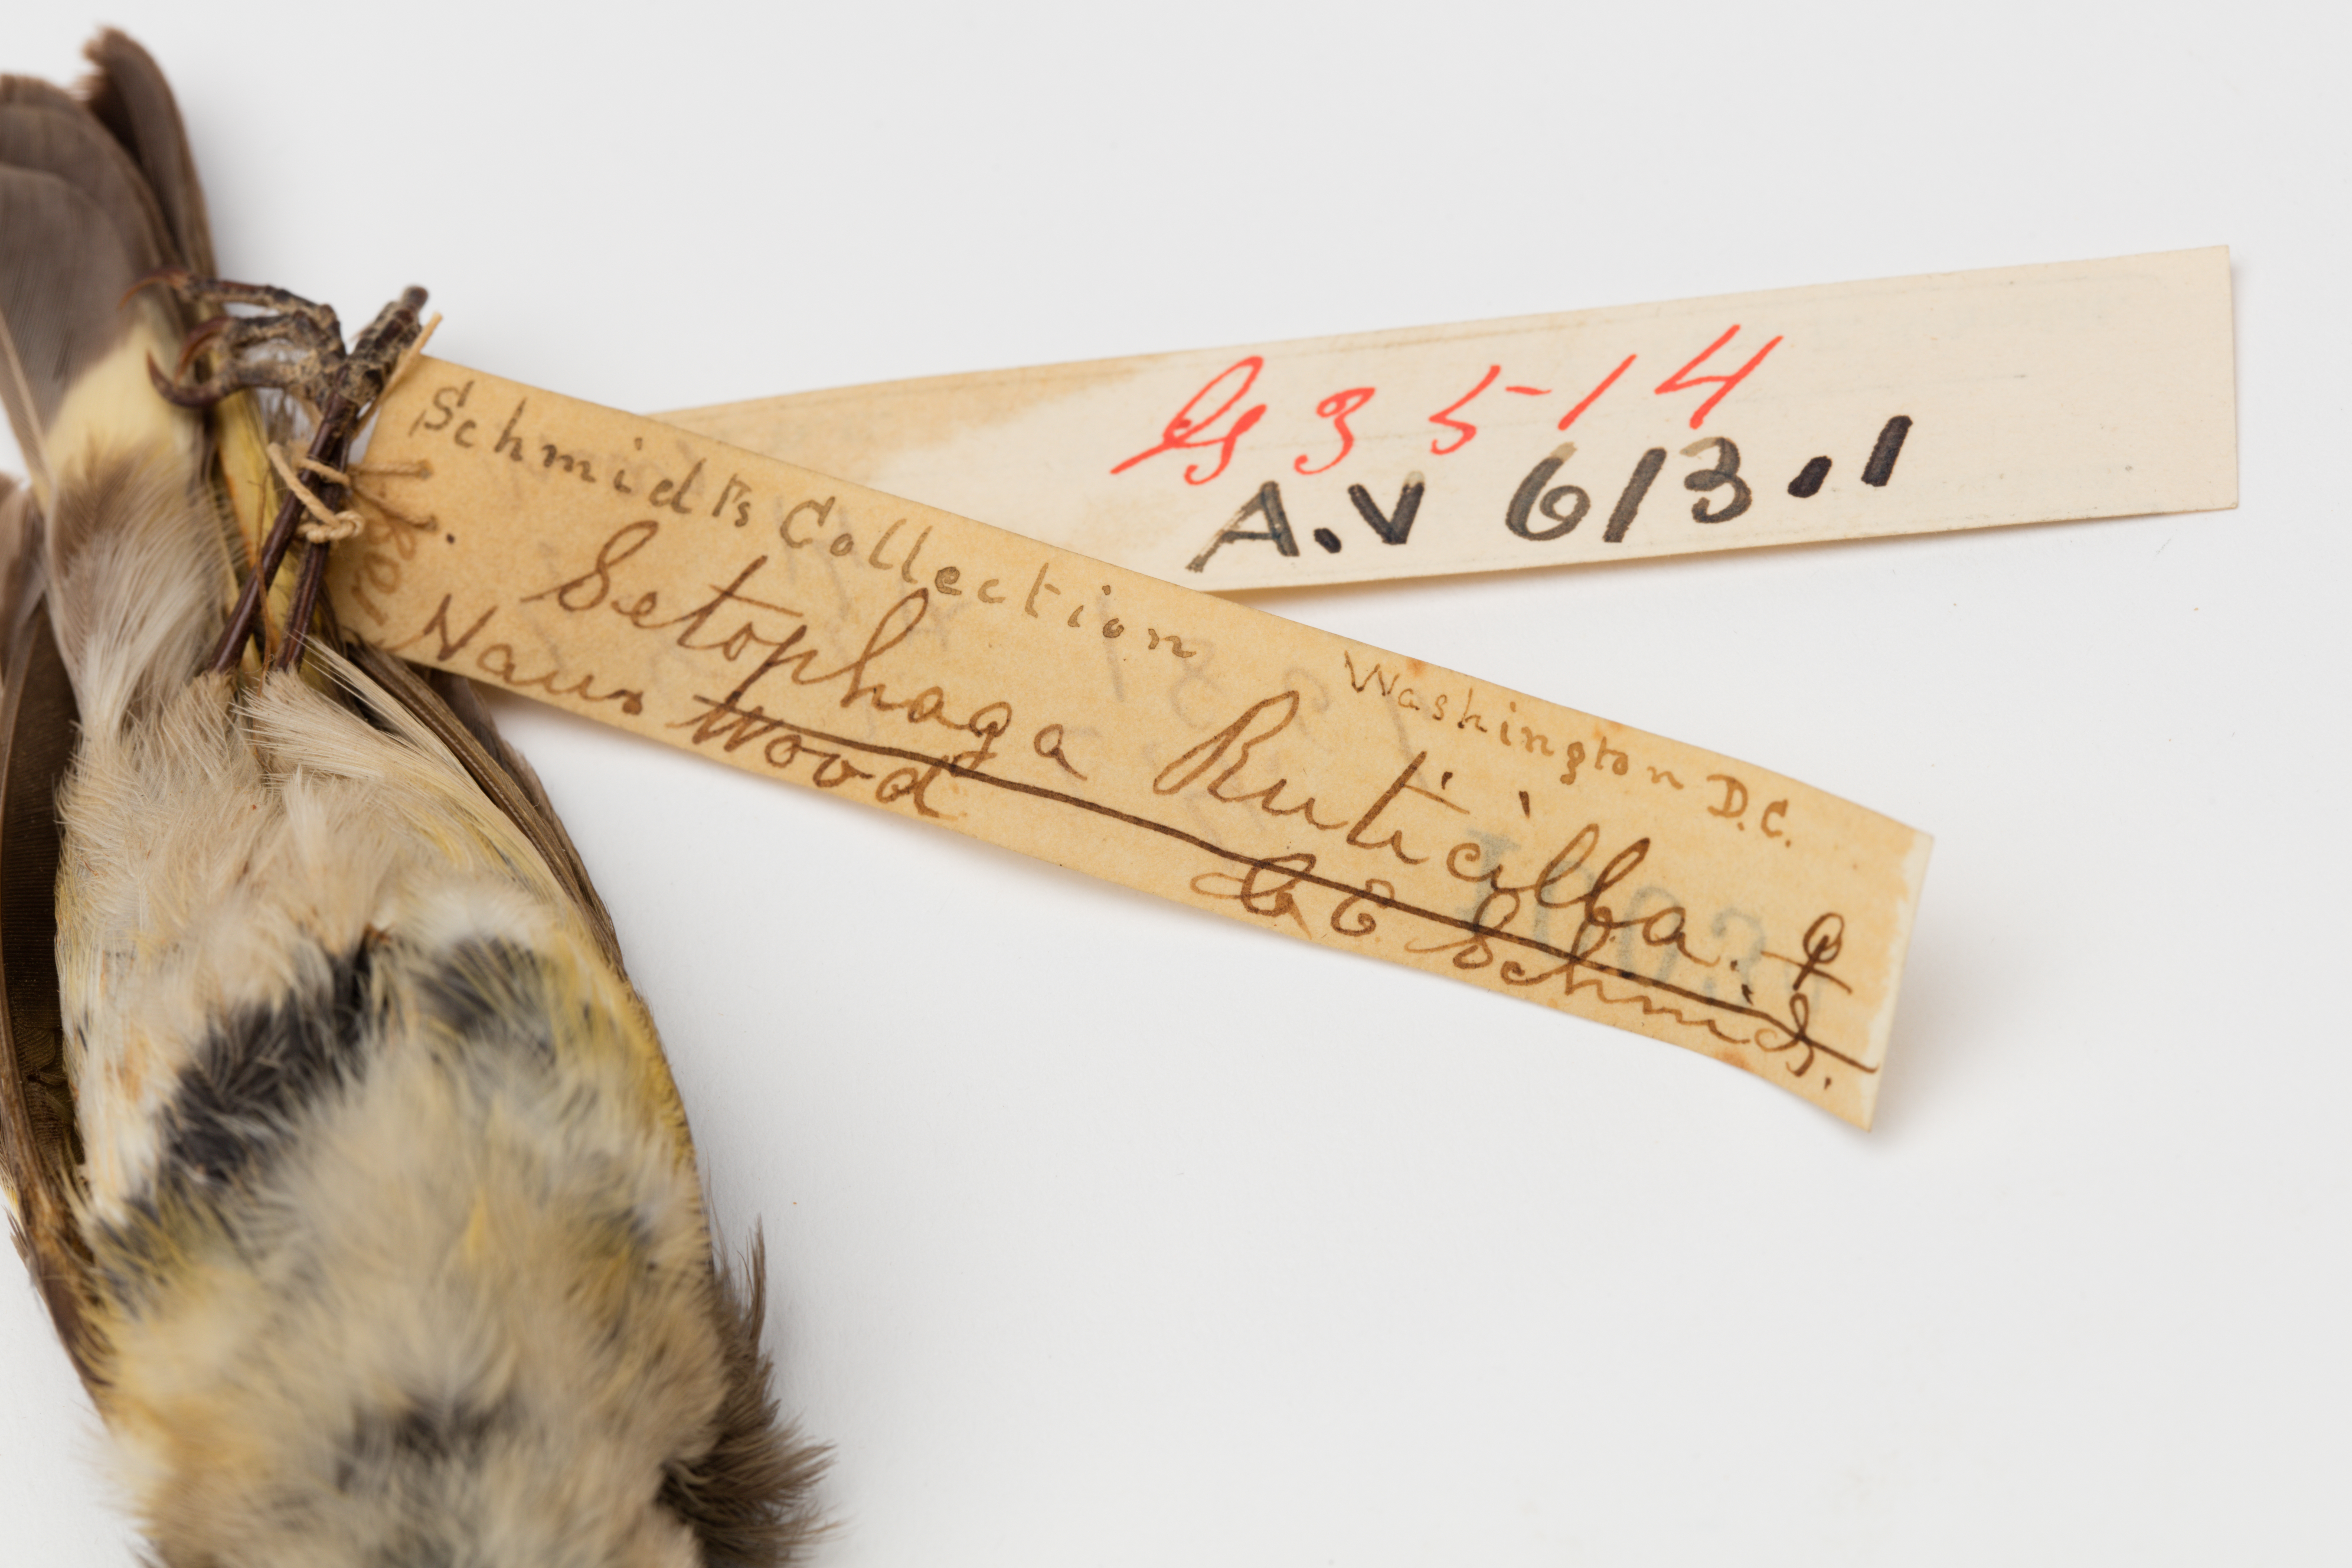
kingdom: Animalia
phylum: Chordata
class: Aves
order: Passeriformes
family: Parulidae
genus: Setophaga
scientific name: Setophaga ruticilla
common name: American redstart
